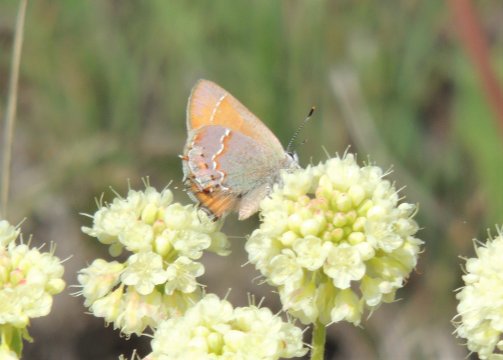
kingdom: Animalia
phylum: Arthropoda
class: Insecta
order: Lepidoptera
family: Lycaenidae
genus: Mitoura
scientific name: Mitoura gryneus
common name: Juniper Hairstreak
